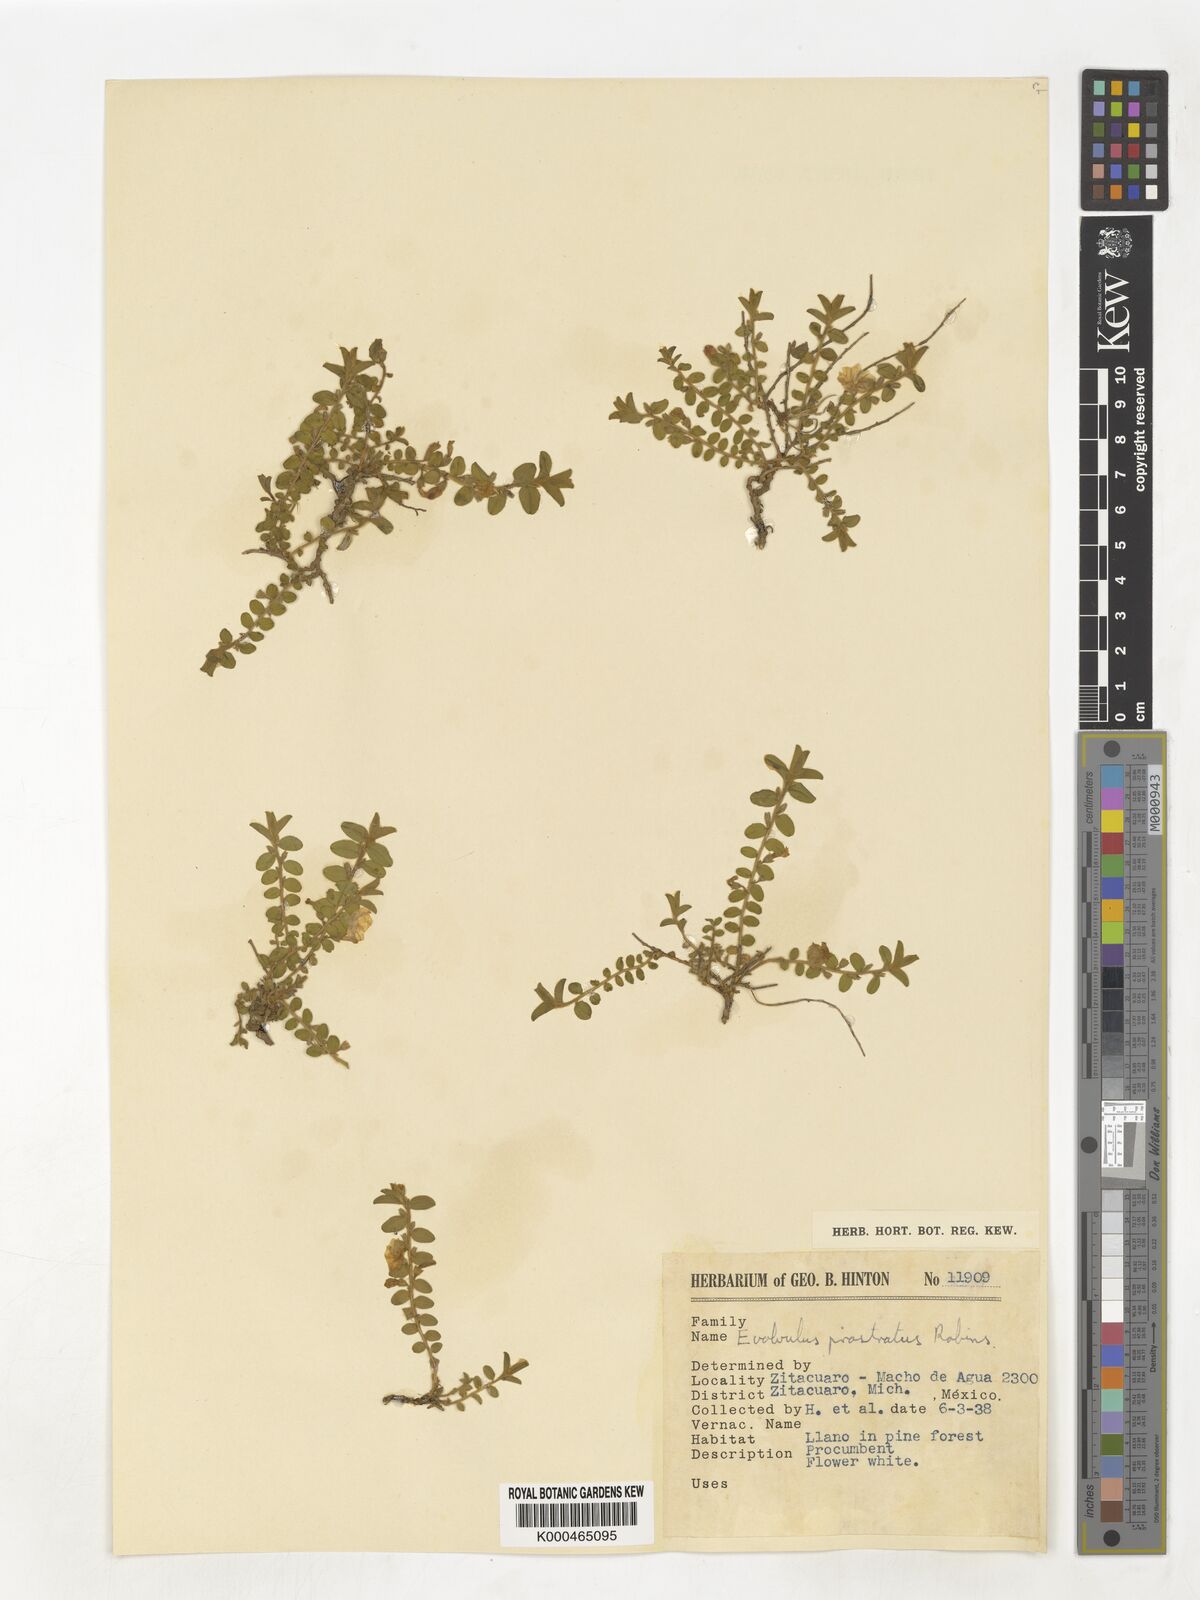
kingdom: Plantae
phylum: Tracheophyta
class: Magnoliopsida
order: Solanales
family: Convolvulaceae
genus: Evolvulus
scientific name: Evolvulus prostratus
